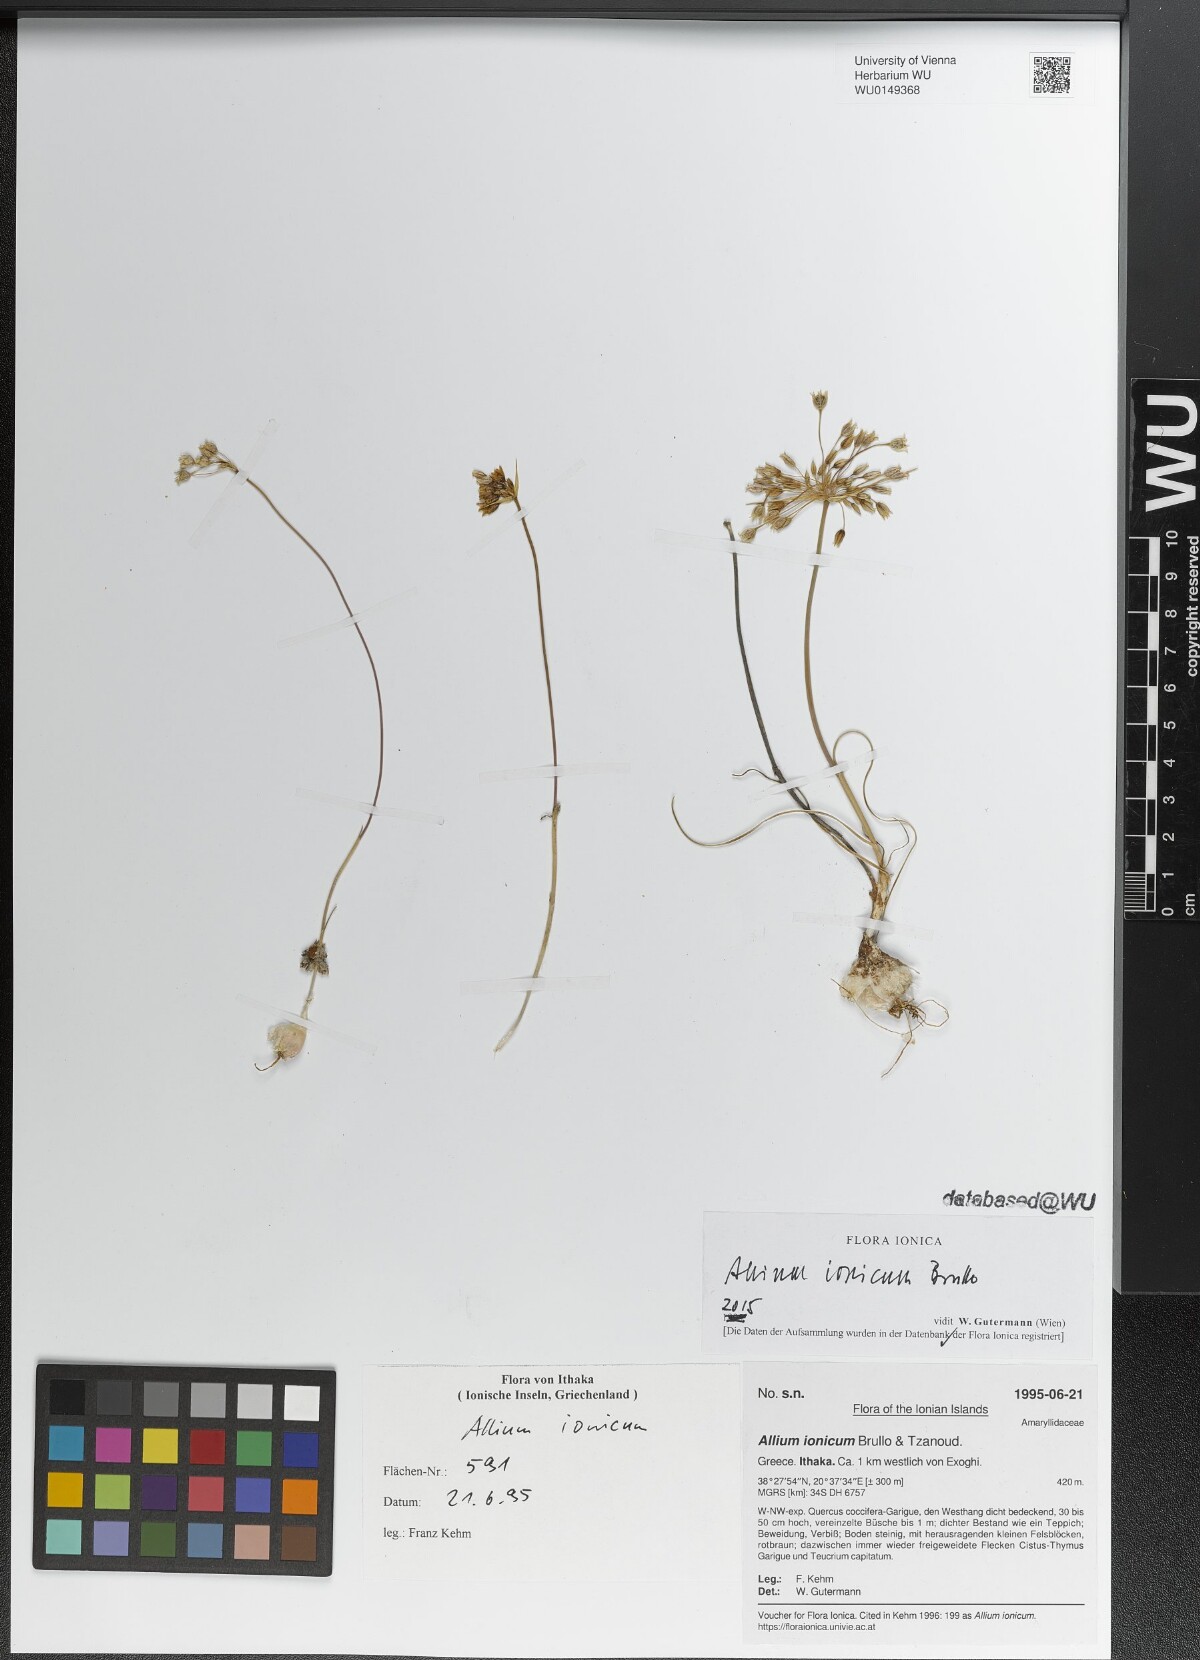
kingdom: Plantae
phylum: Tracheophyta
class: Liliopsida
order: Asparagales
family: Amaryllidaceae
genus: Allium
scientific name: Allium ionicum
